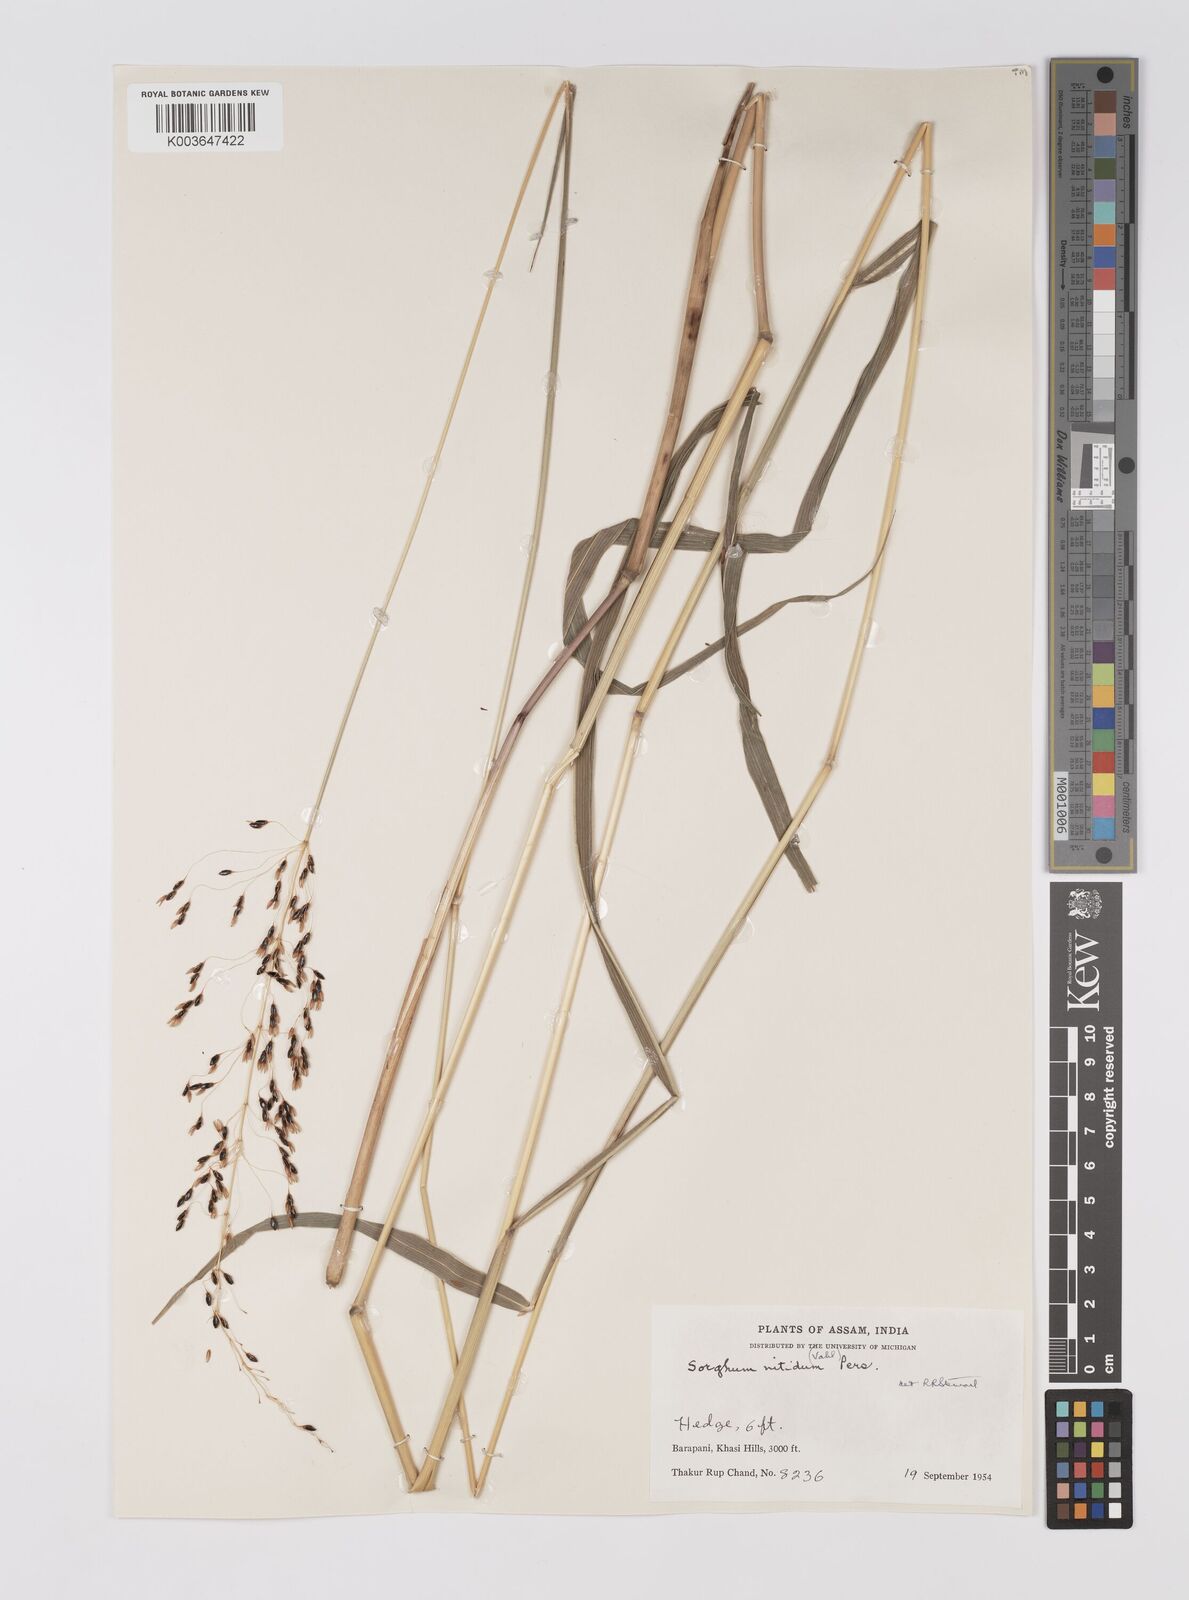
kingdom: Plantae
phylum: Tracheophyta
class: Liliopsida
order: Poales
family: Poaceae
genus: Sorghum
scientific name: Sorghum nitidum
